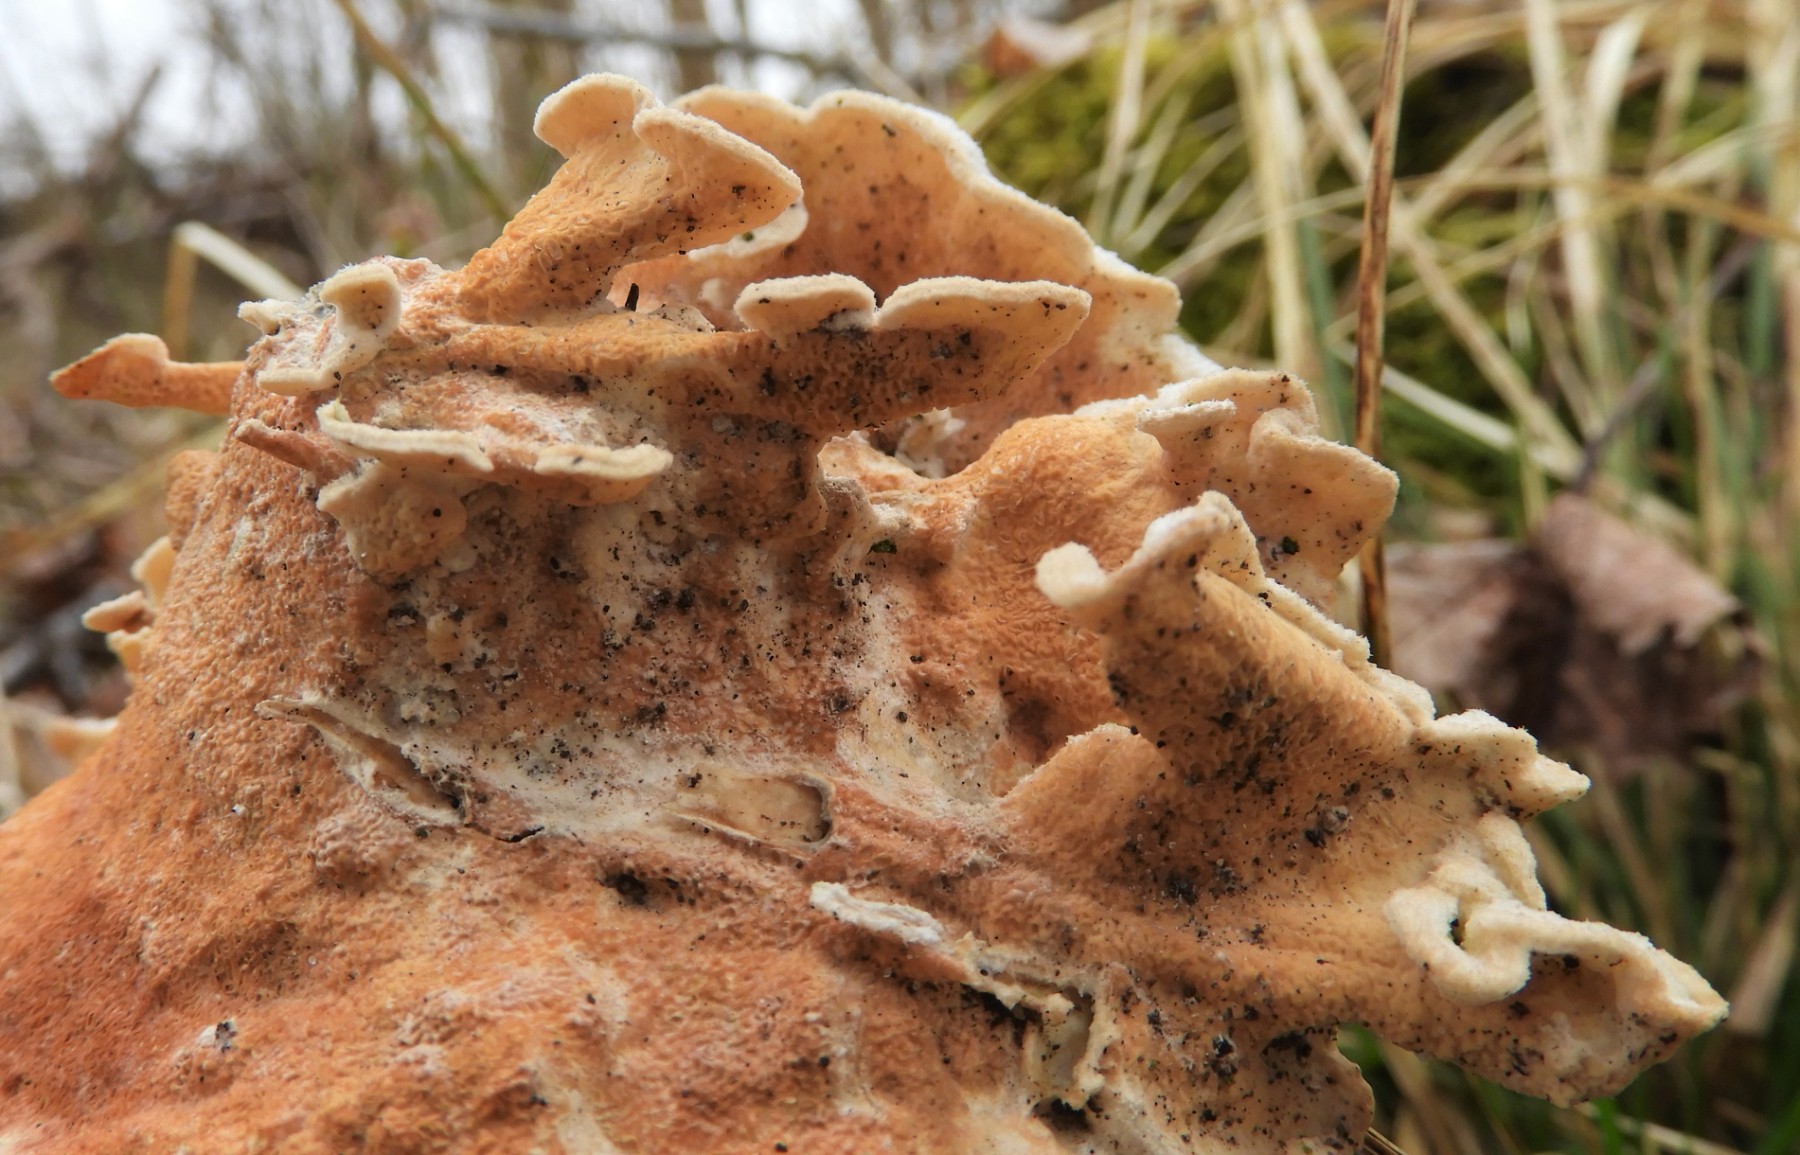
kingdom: Fungi
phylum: Basidiomycota
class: Agaricomycetes
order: Polyporales
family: Irpicaceae
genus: Byssomerulius
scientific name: Byssomerulius corium
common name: læder-åresvamp
